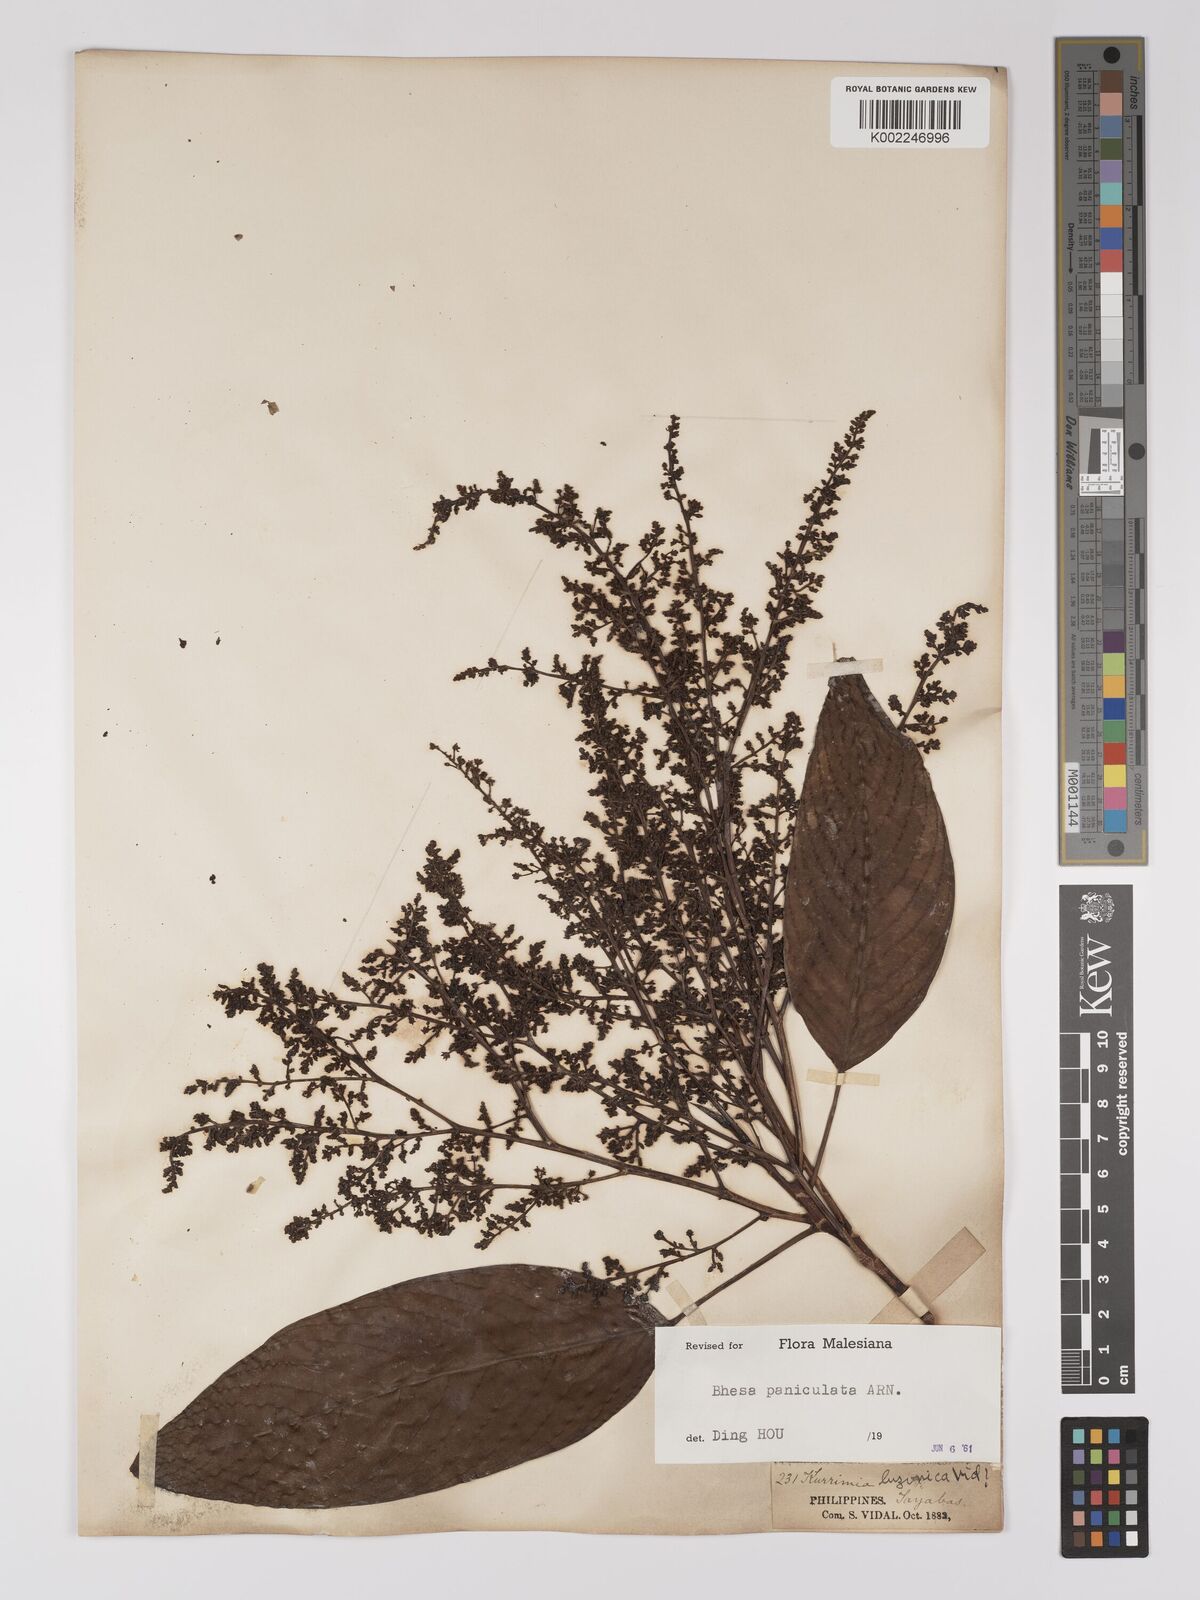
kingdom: Plantae
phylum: Tracheophyta
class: Magnoliopsida
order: Malpighiales
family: Centroplacaceae
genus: Bhesa
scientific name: Bhesa paniculata
